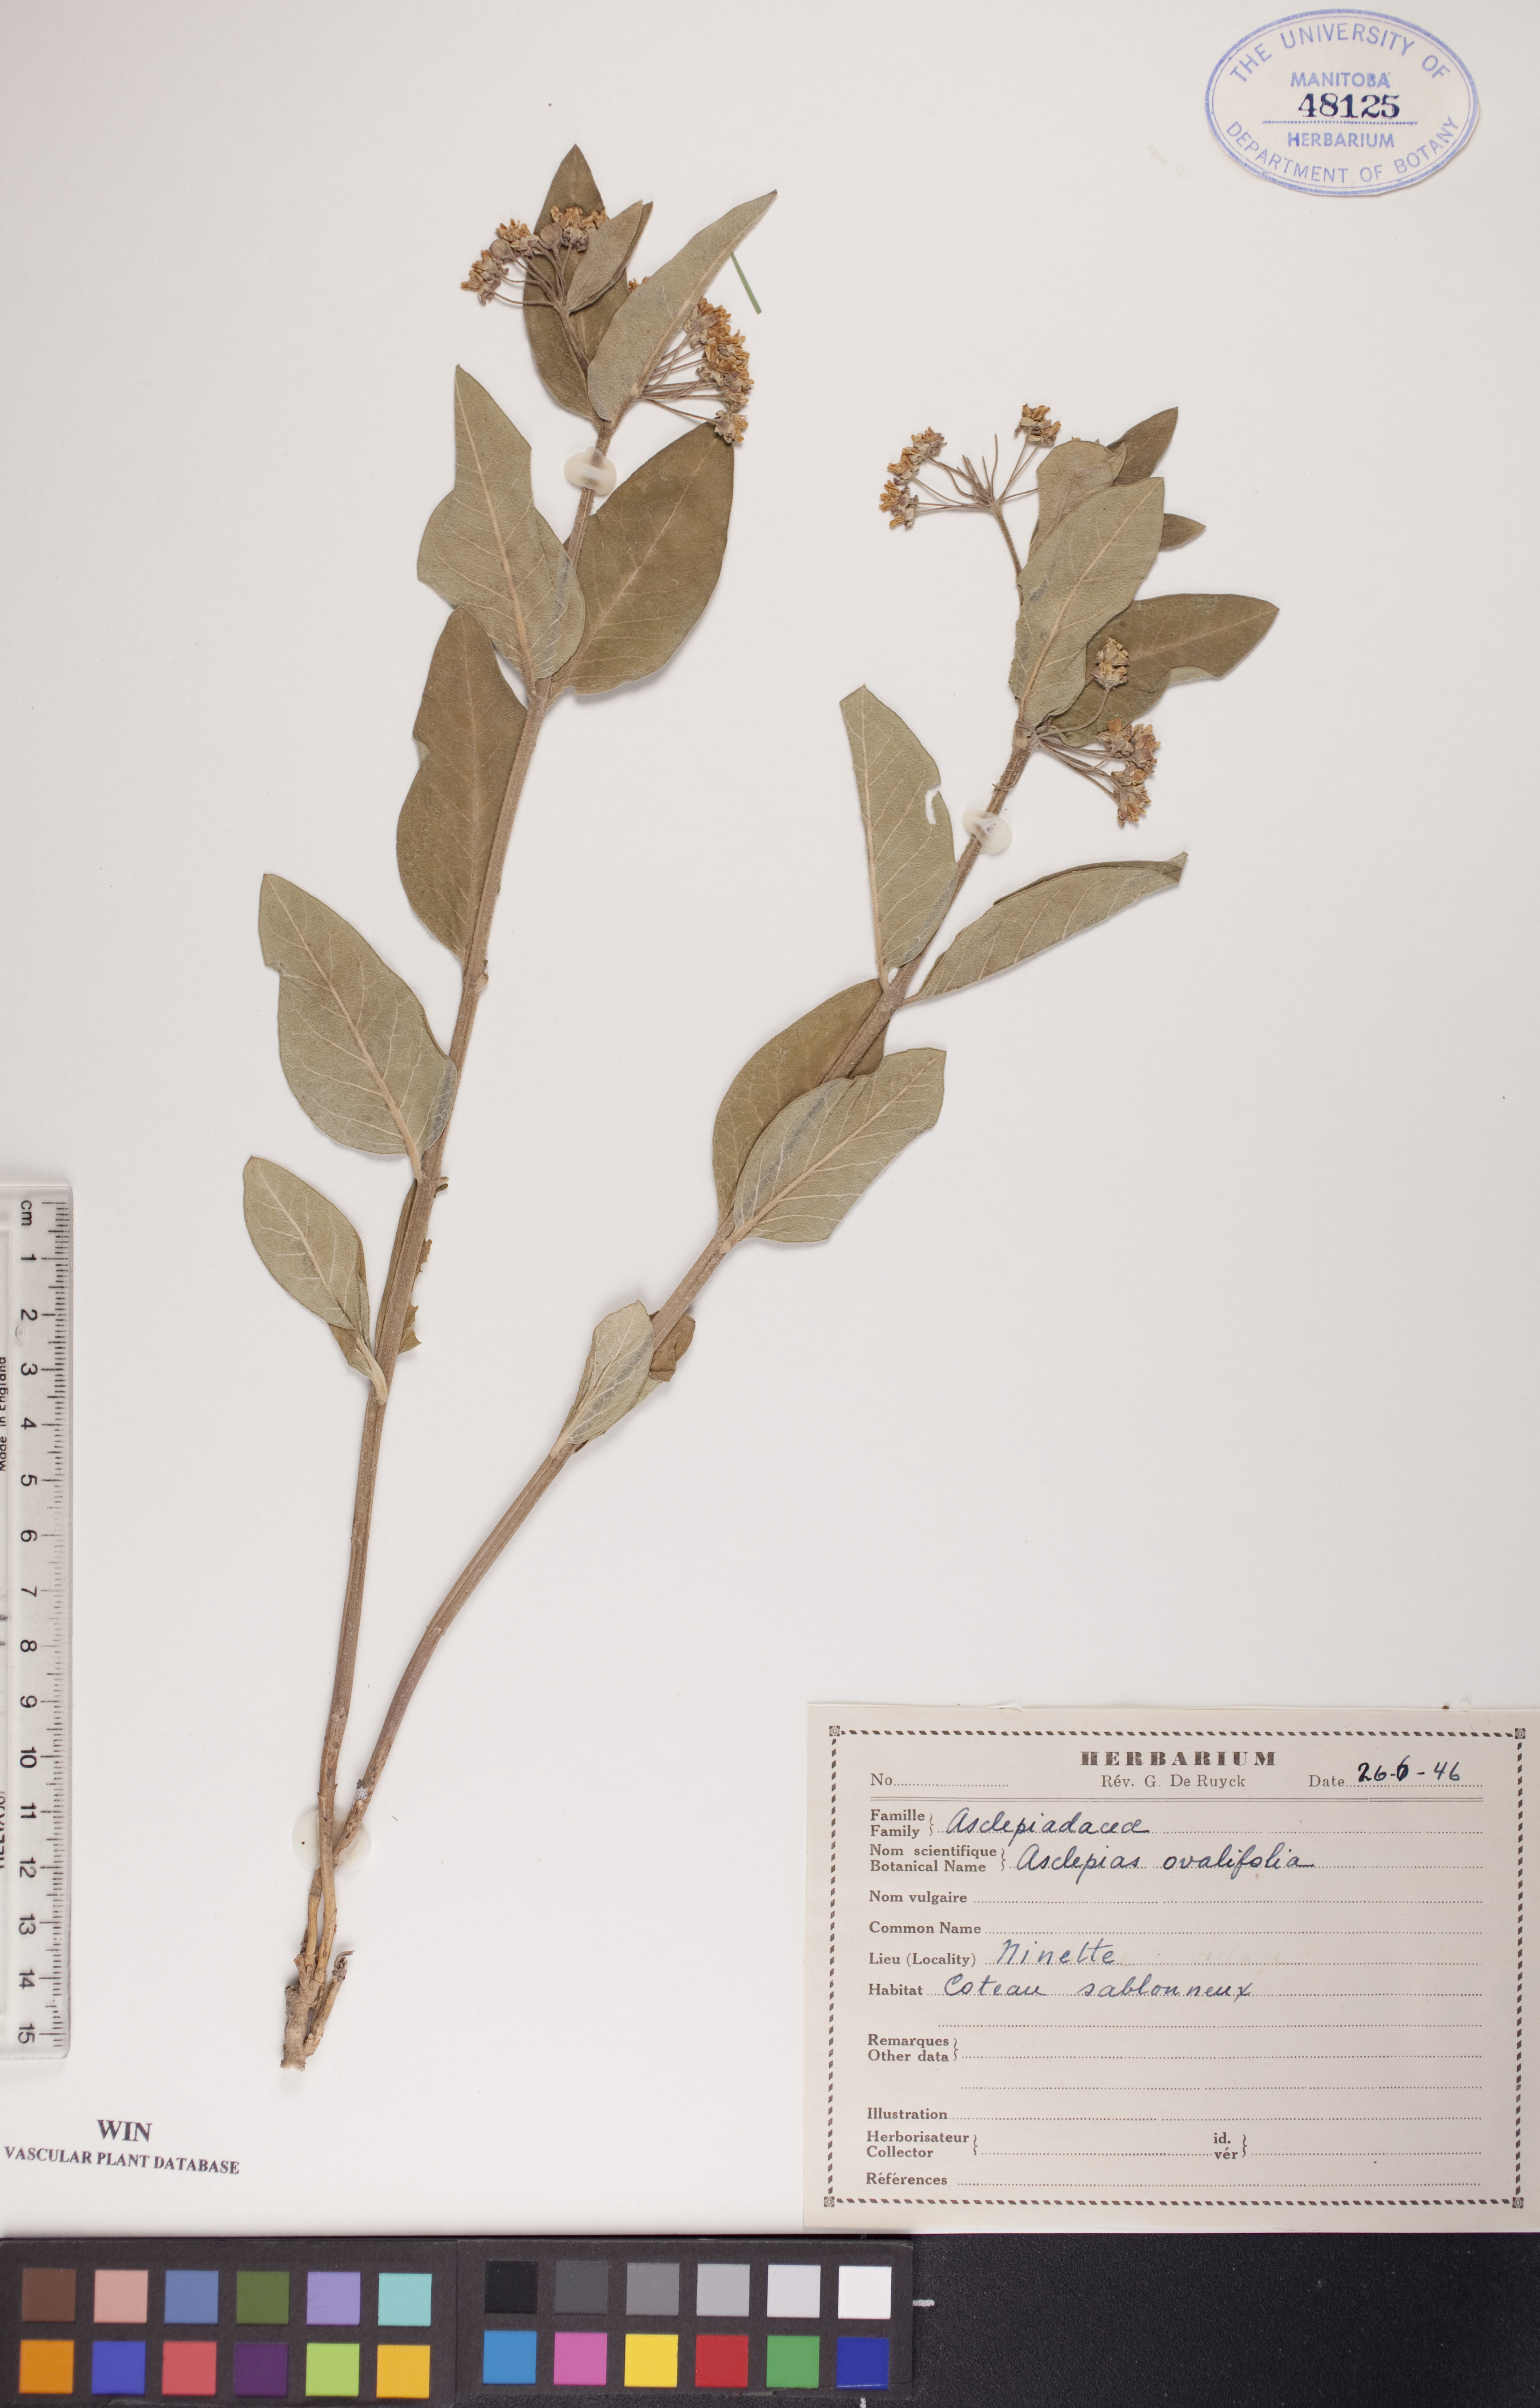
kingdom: Plantae
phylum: Tracheophyta
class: Magnoliopsida
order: Gentianales
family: Apocynaceae
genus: Asclepias
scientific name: Asclepias ovalifolia
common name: Dwarf milkweed
